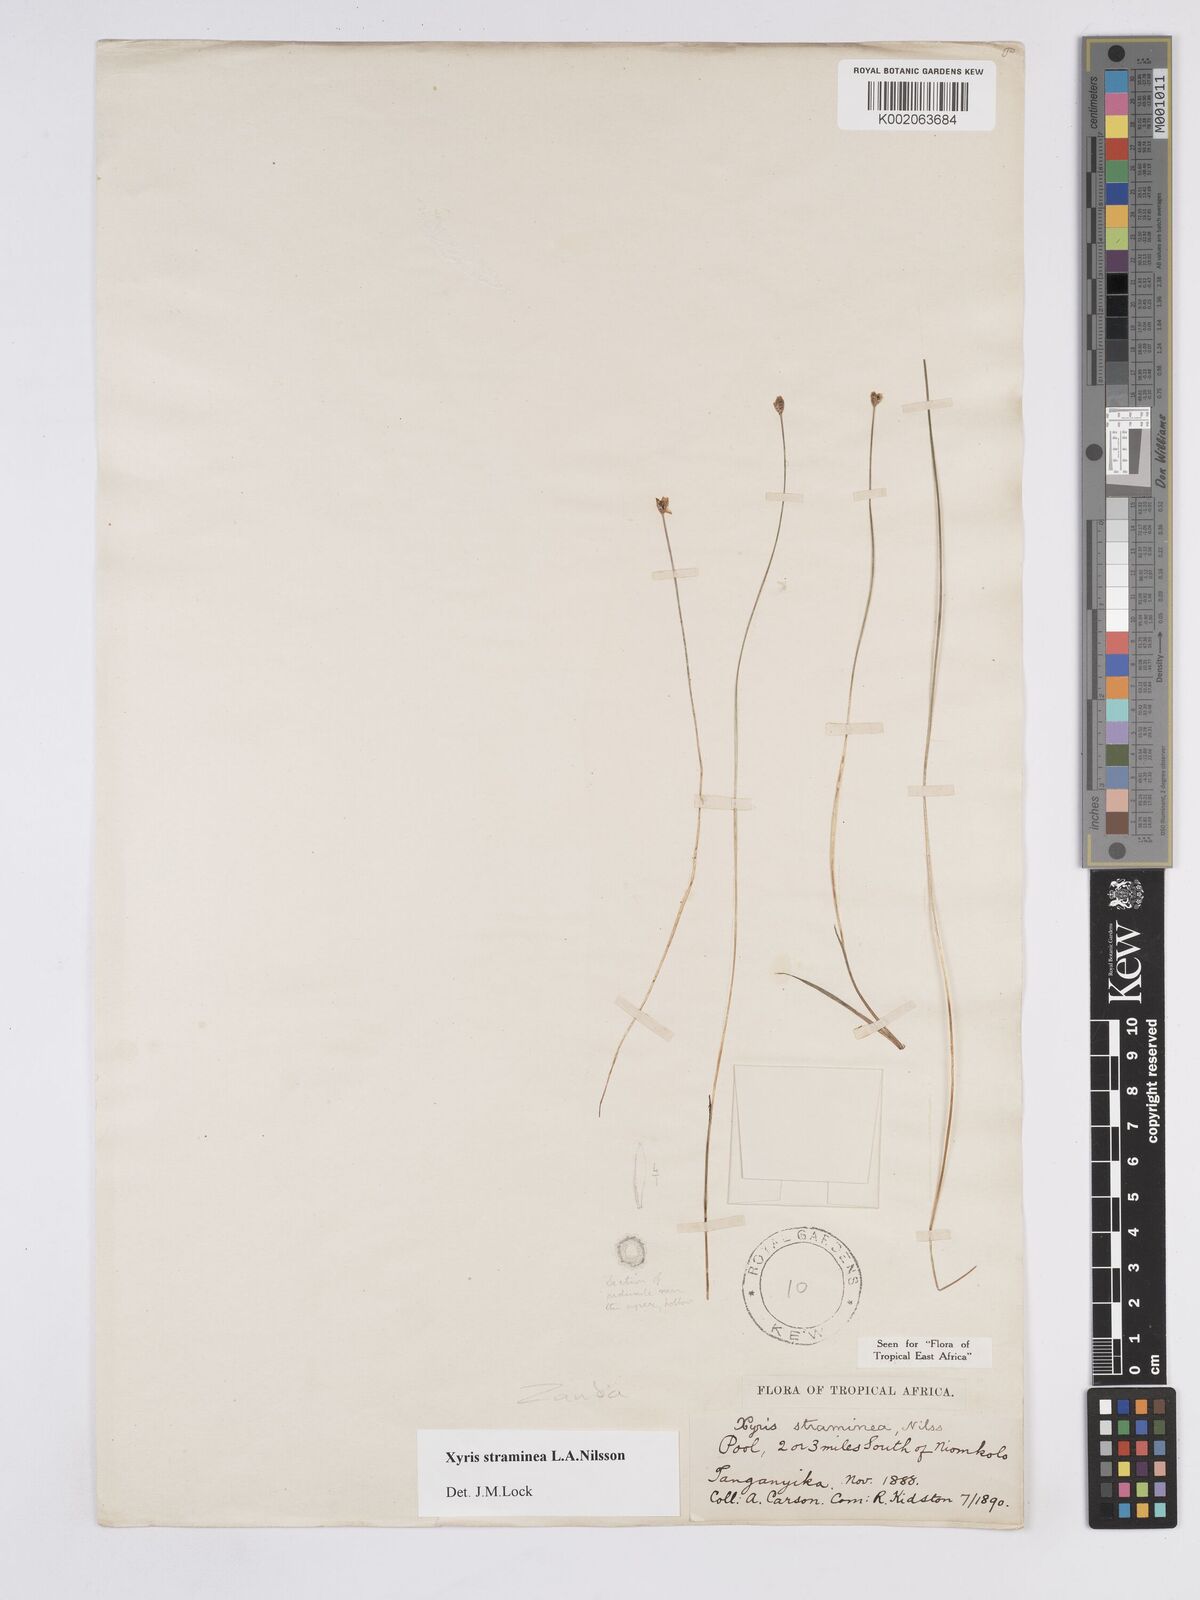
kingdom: Plantae
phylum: Tracheophyta
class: Liliopsida
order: Poales
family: Xyridaceae
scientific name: Xyridaceae
